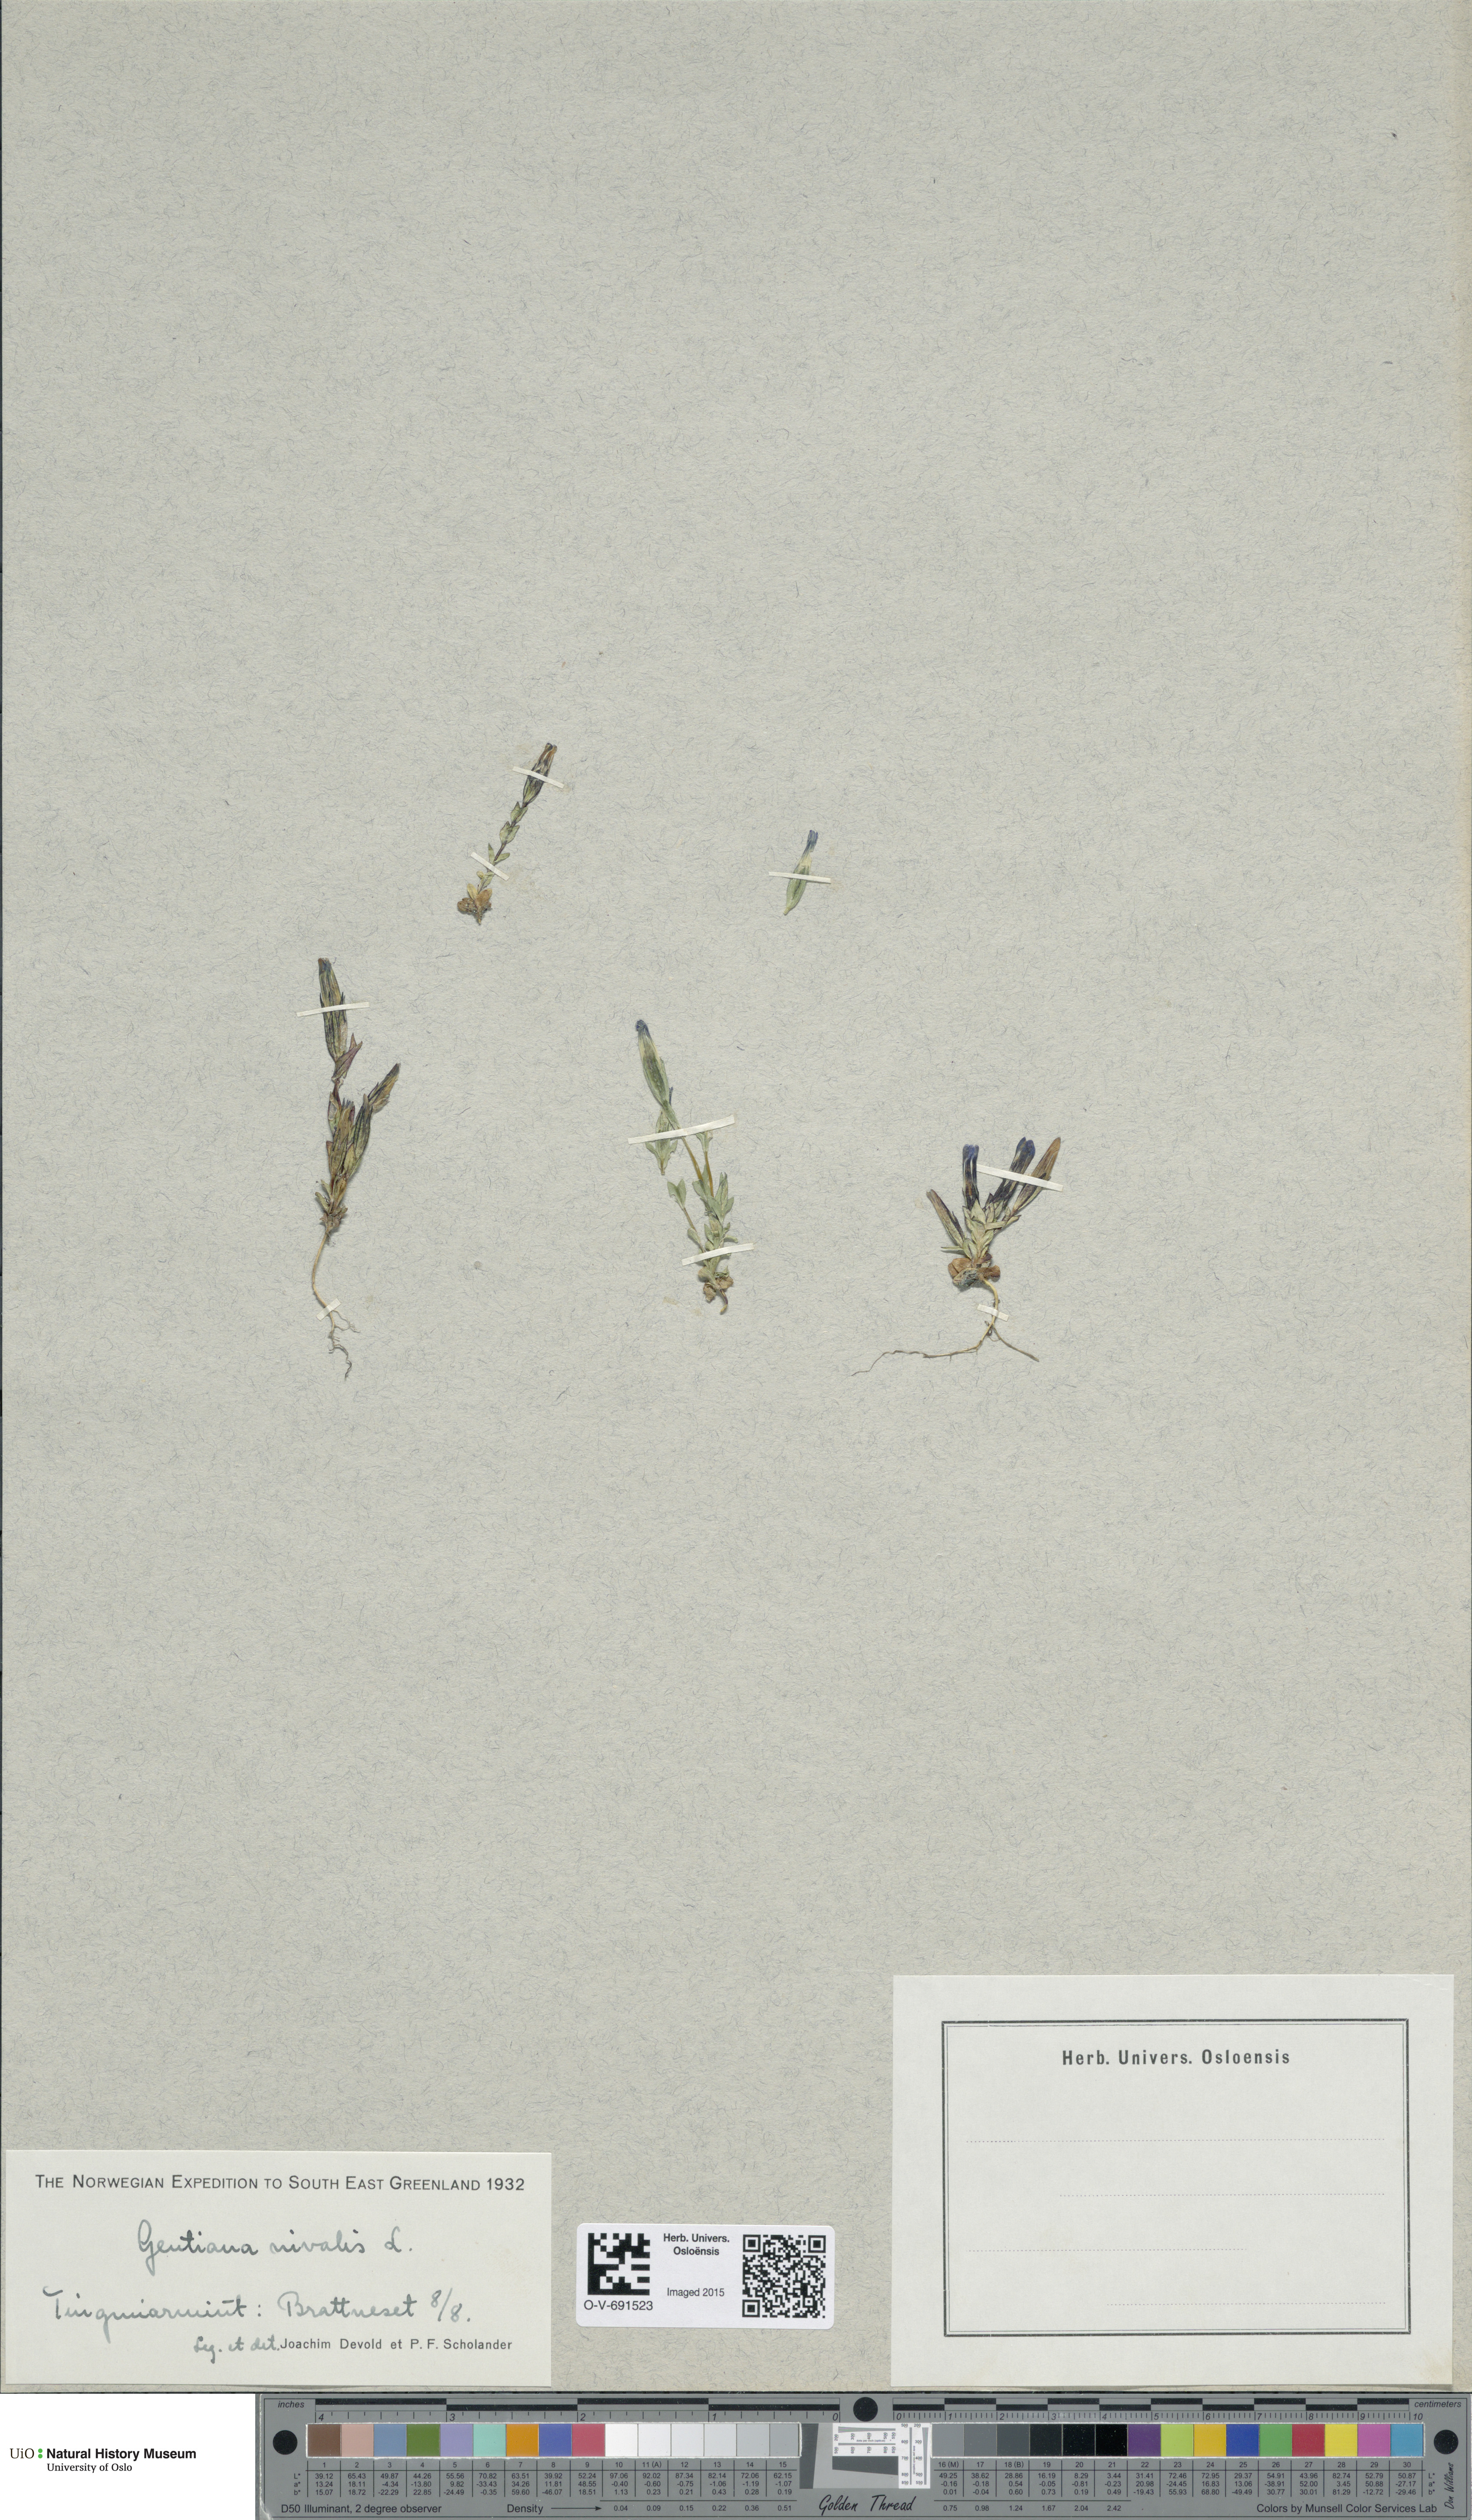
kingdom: Plantae
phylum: Tracheophyta
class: Magnoliopsida
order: Gentianales
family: Gentianaceae
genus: Gentiana
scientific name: Gentiana nivalis
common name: Alpine gentian
